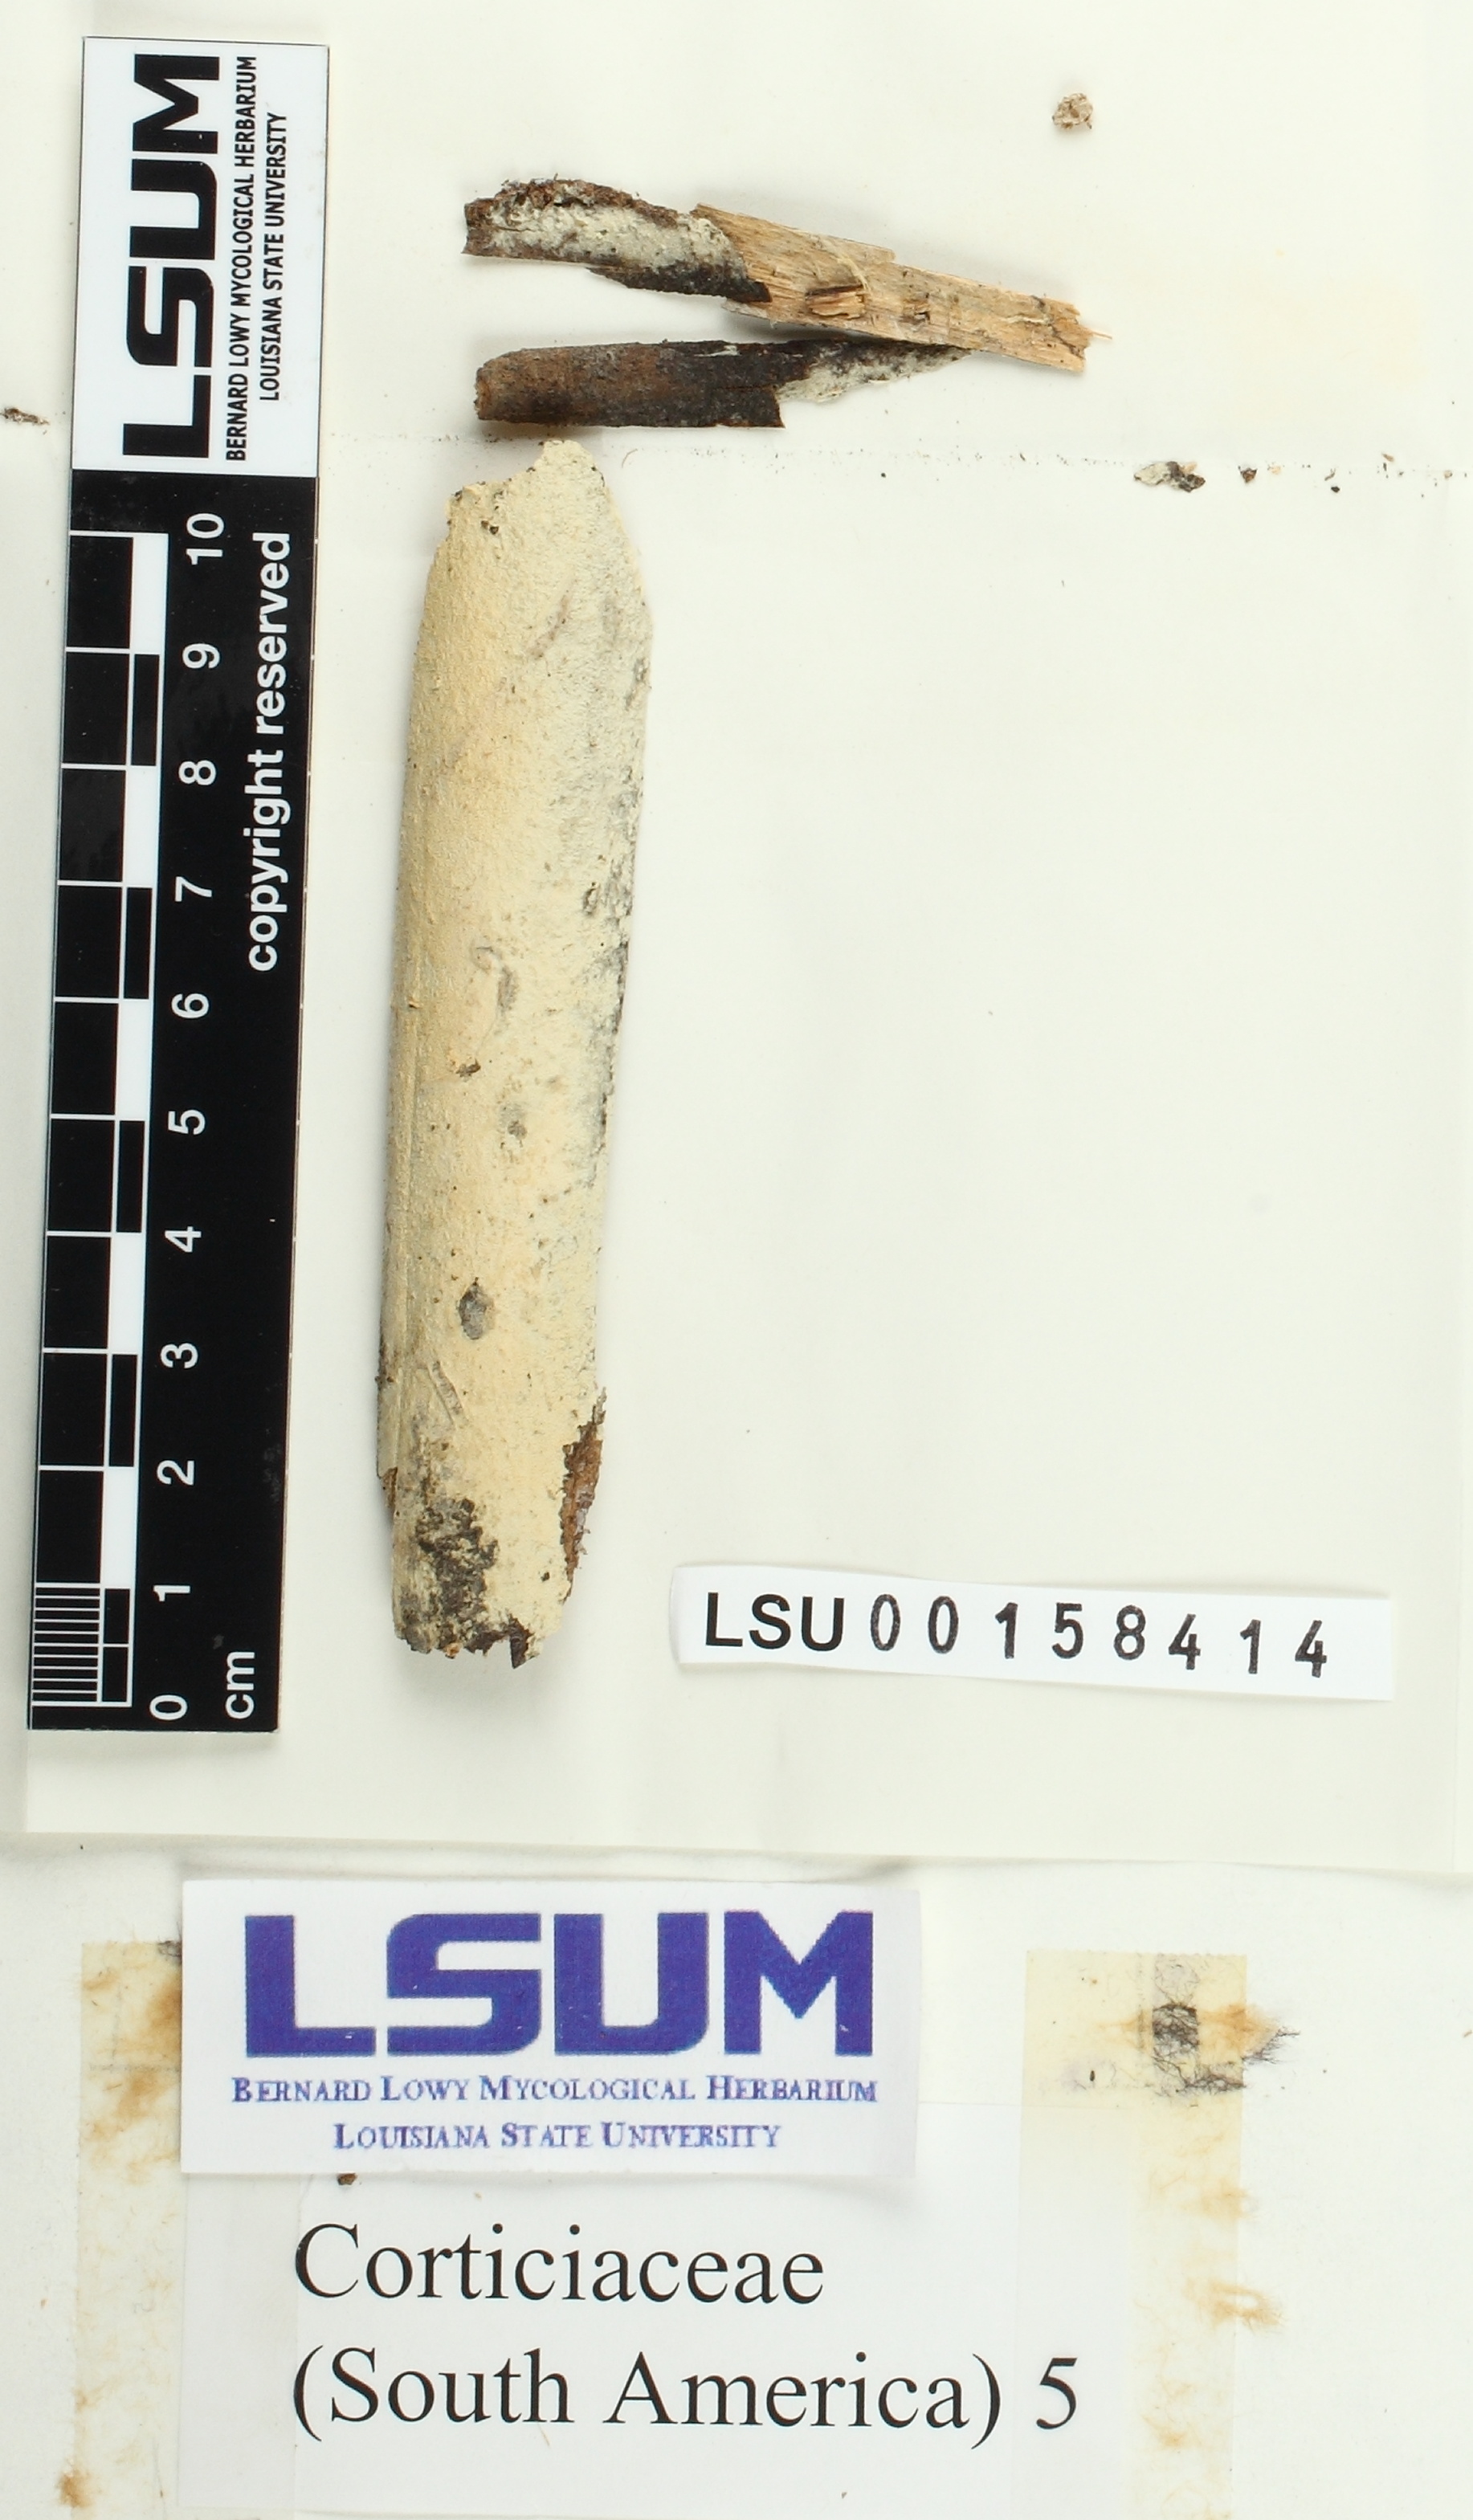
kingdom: Fungi
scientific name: Fungi
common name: Fungi
